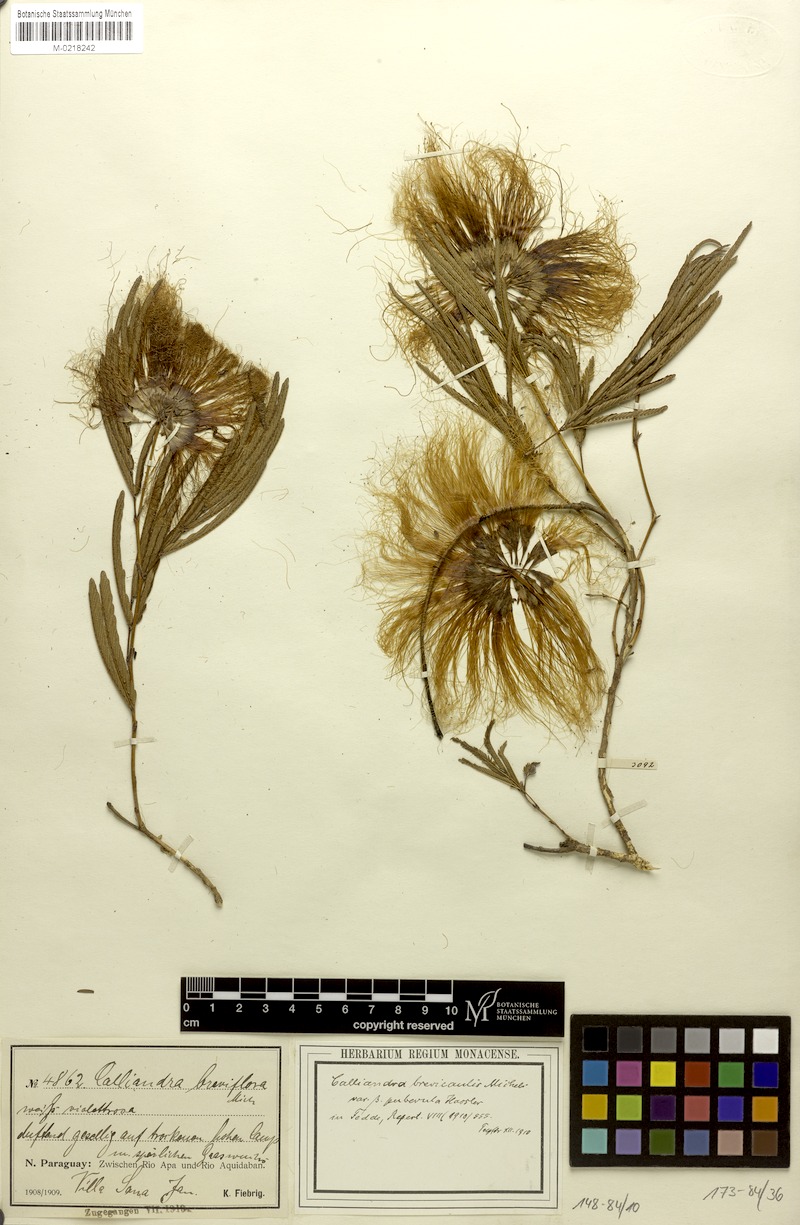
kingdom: Plantae
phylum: Tracheophyta
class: Magnoliopsida
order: Fabales
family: Fabaceae
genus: Calliandra
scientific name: Calliandra brevicaulis
